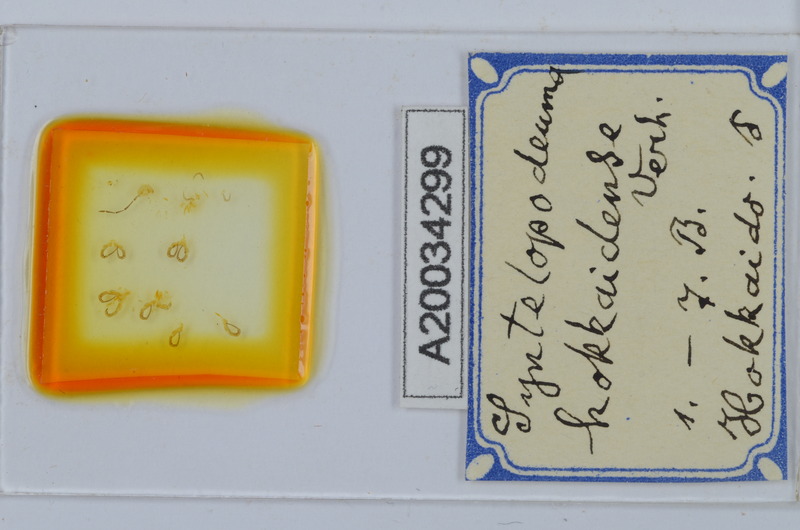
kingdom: Animalia
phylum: Arthropoda
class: Diplopoda
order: Chordeumatida
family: Diplomaragnidae
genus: Diplomaragna
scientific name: Diplomaragna hokkaidensis
